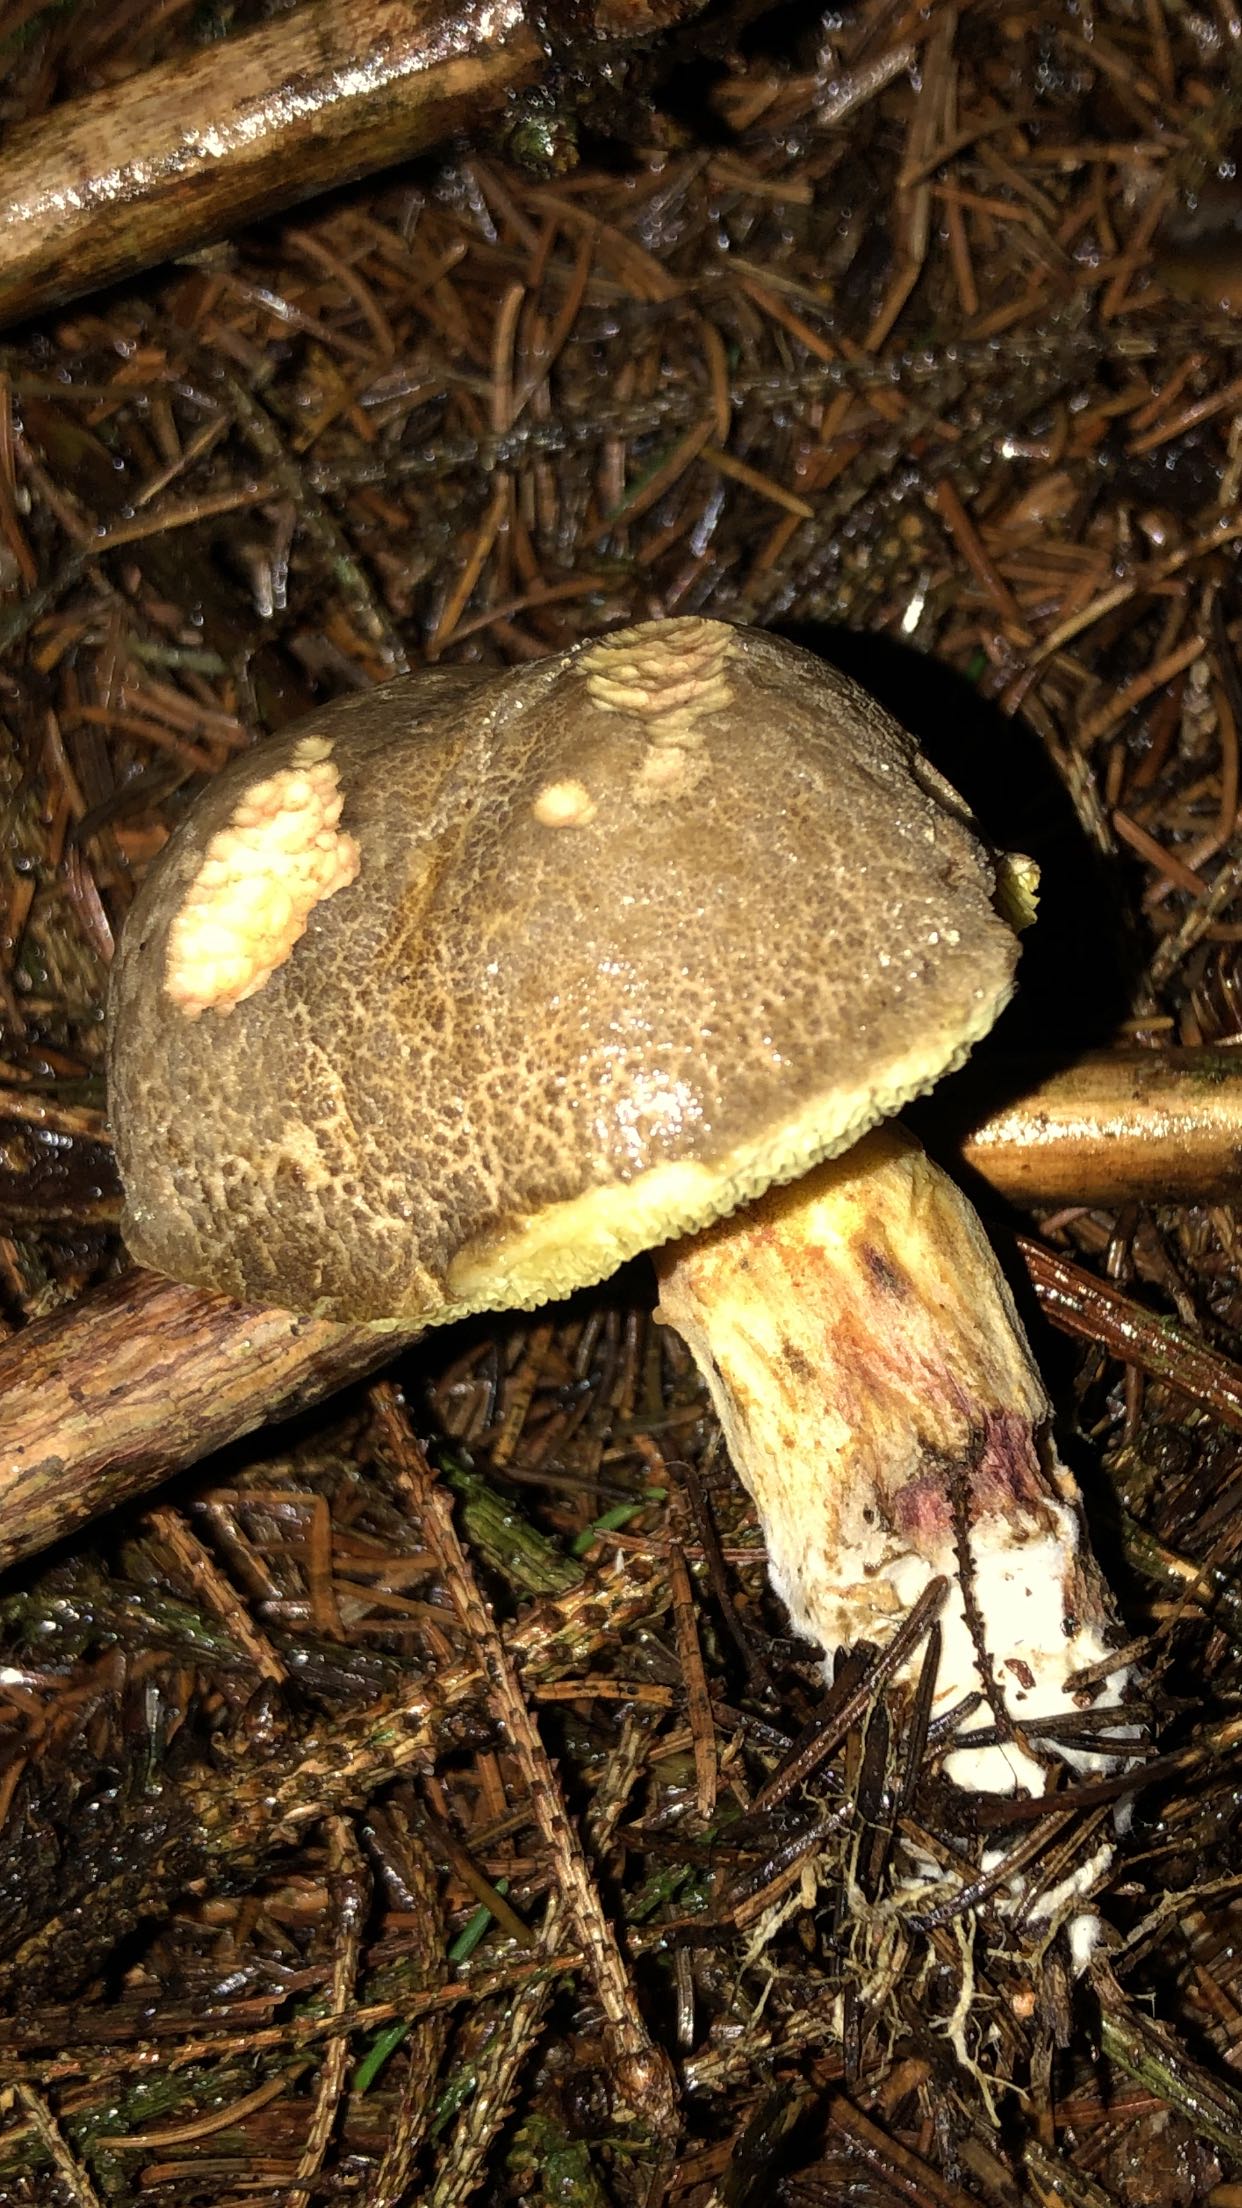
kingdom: Fungi
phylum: Basidiomycota
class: Agaricomycetes
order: Boletales
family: Boletaceae
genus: Xerocomellus
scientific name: Xerocomellus
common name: dværgrørhat
